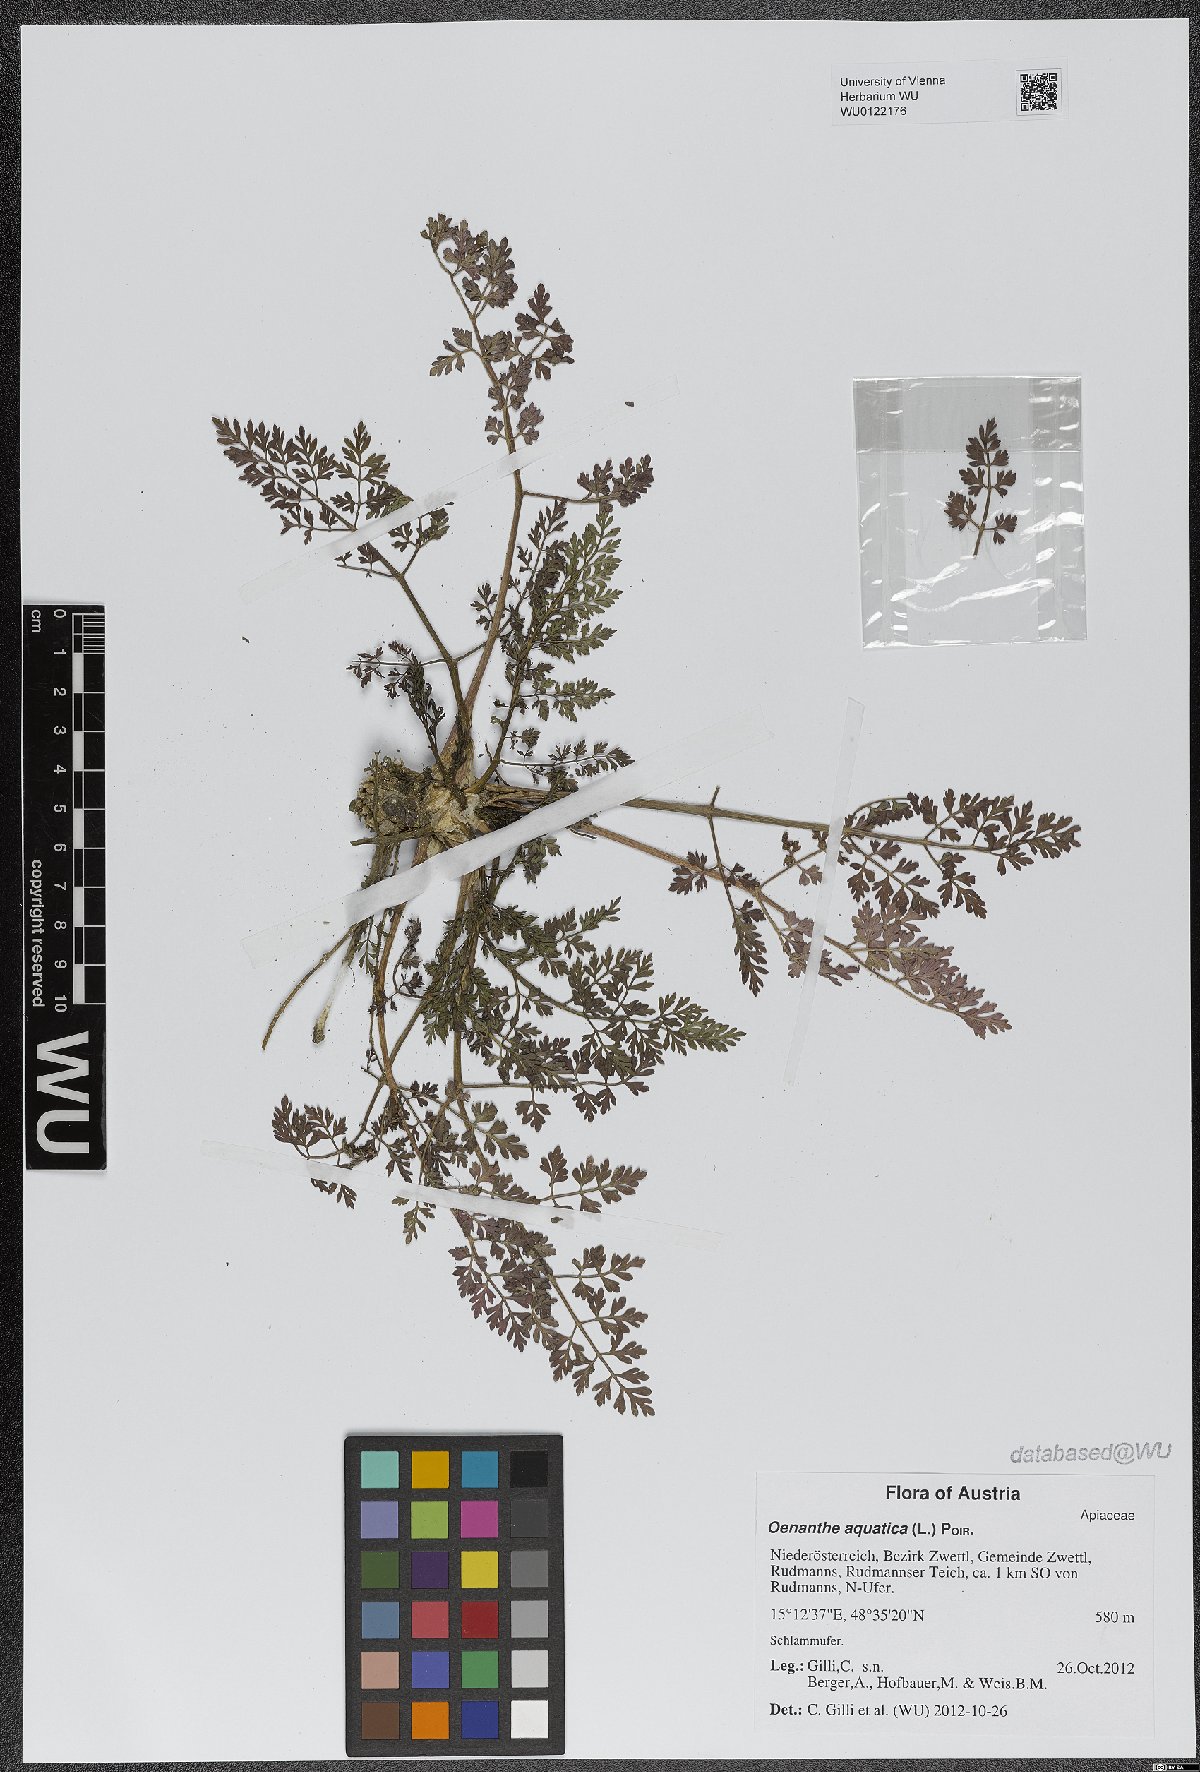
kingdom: Plantae
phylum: Tracheophyta
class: Magnoliopsida
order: Apiales
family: Apiaceae
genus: Oenanthe
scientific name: Oenanthe aquatica
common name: Fine-leaved water-dropwort
